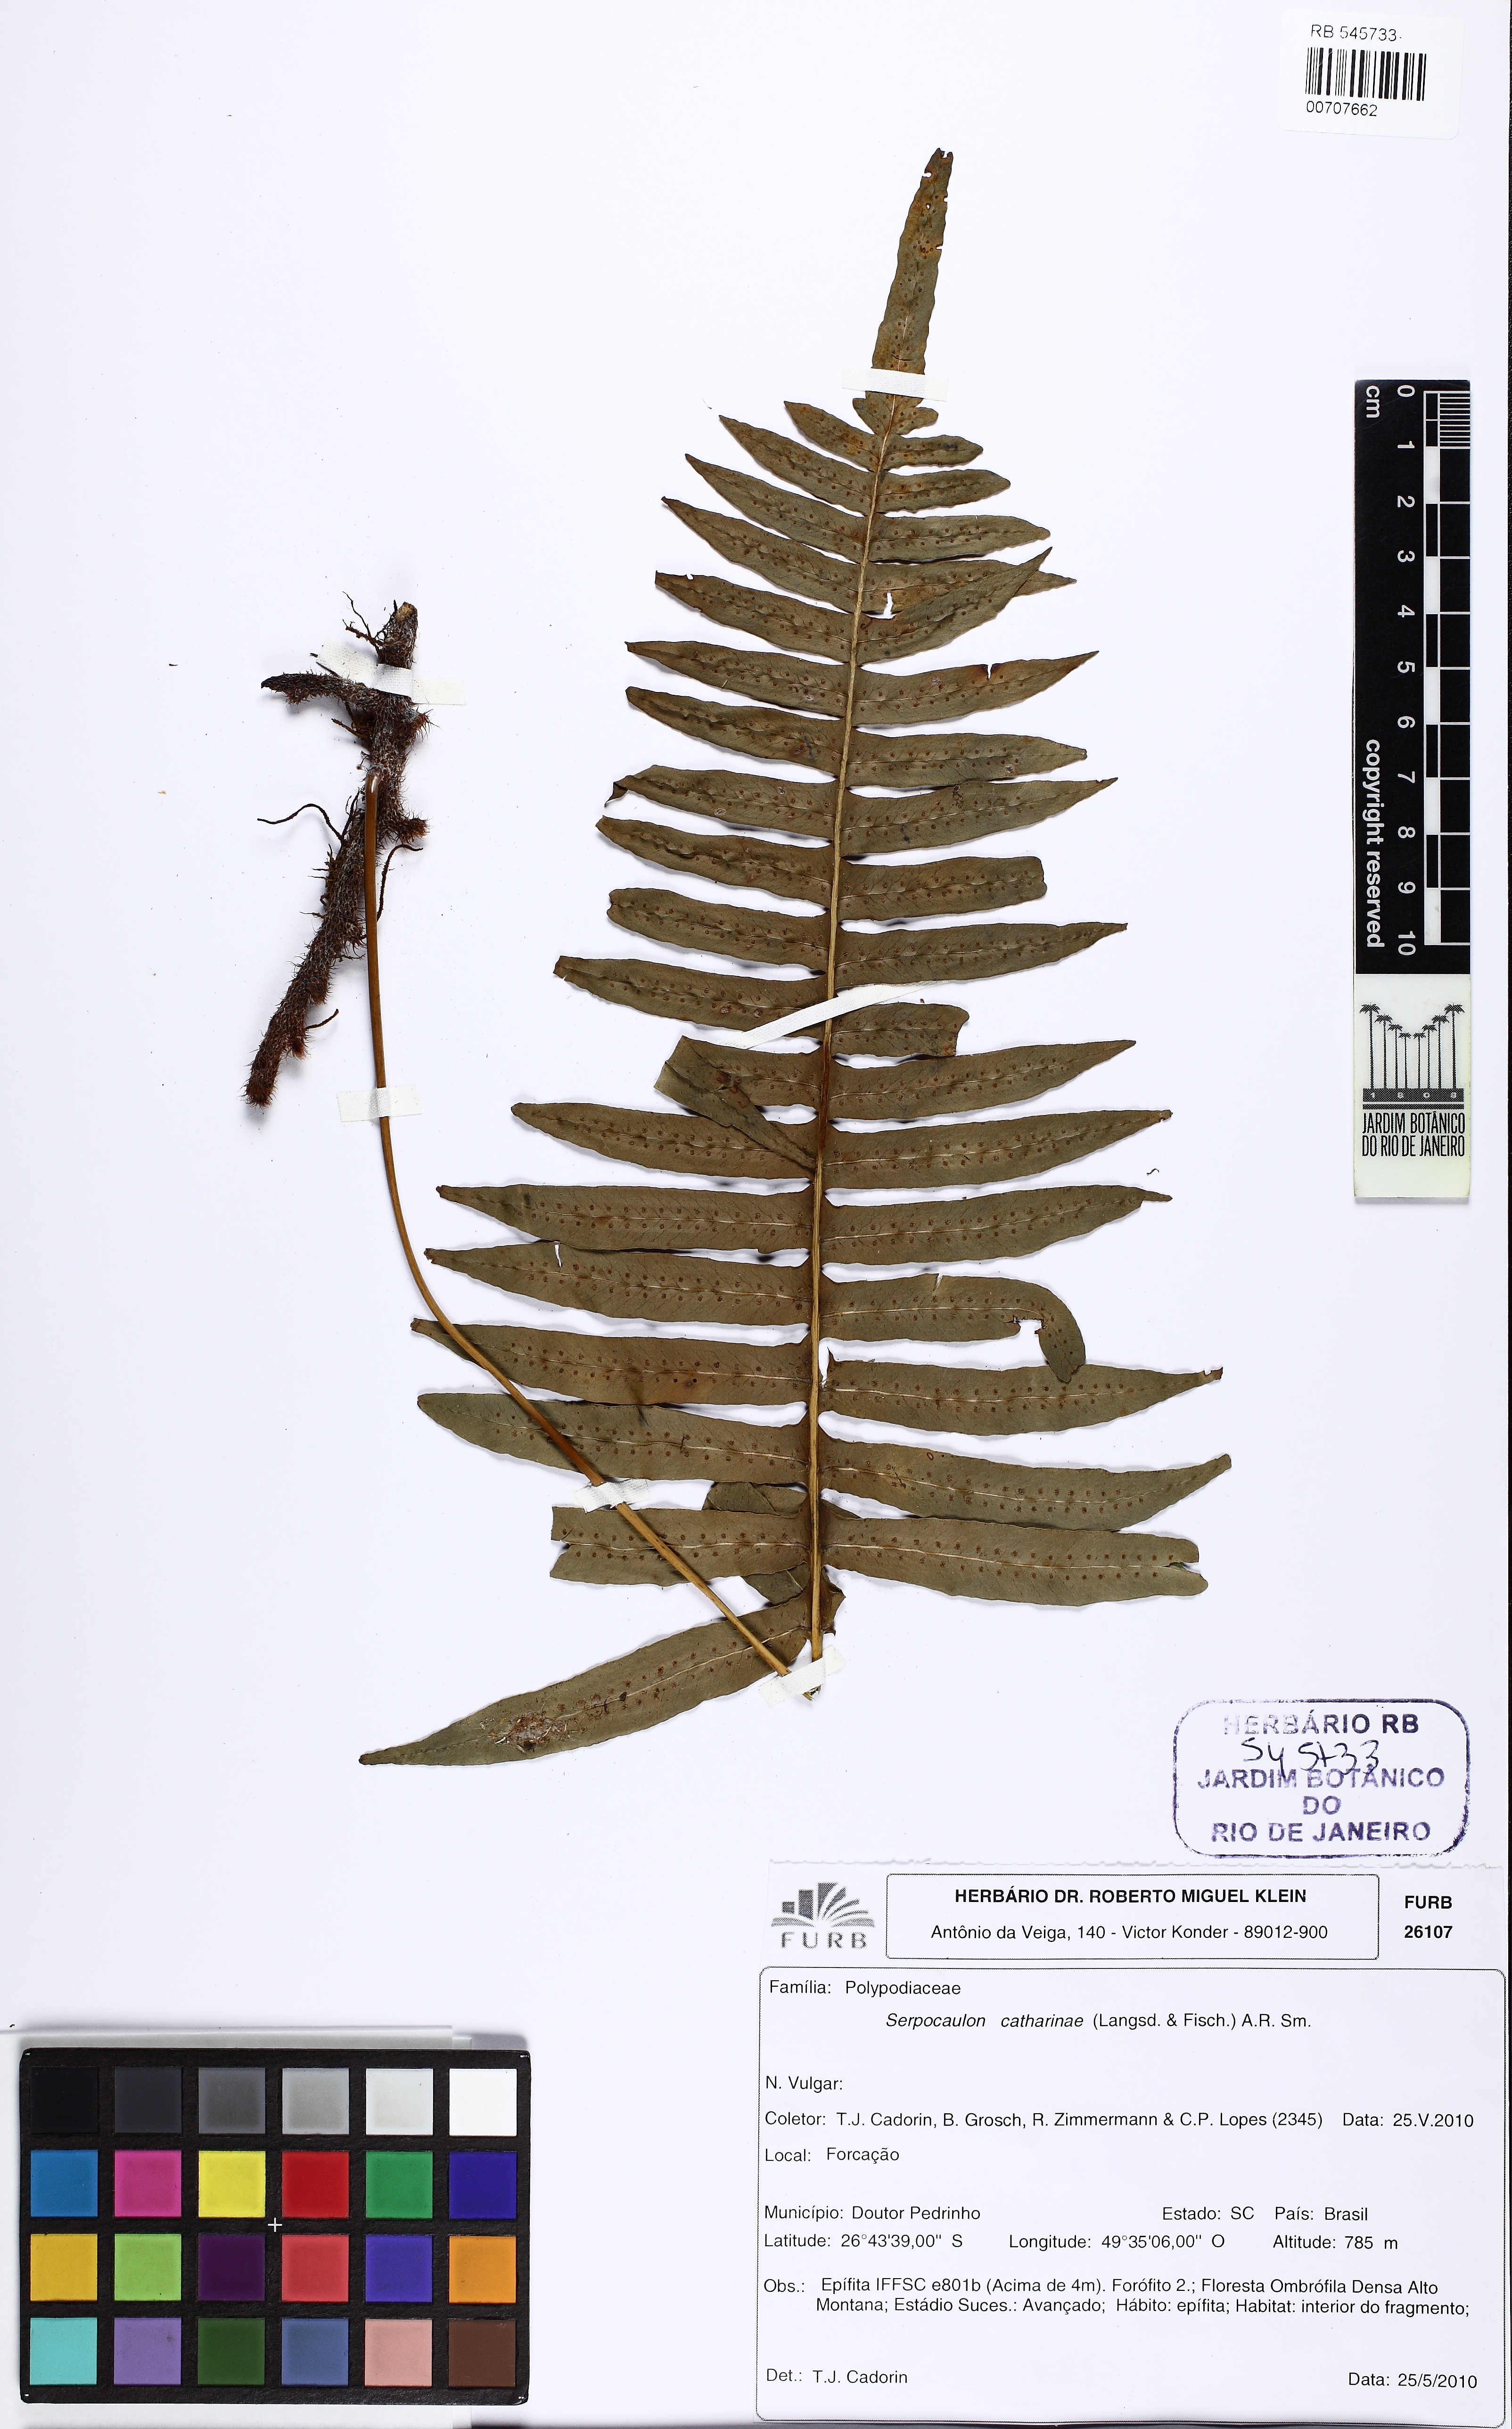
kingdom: Plantae
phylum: Tracheophyta
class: Polypodiopsida
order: Polypodiales
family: Polypodiaceae
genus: Serpocaulon
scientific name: Serpocaulon catharinae
